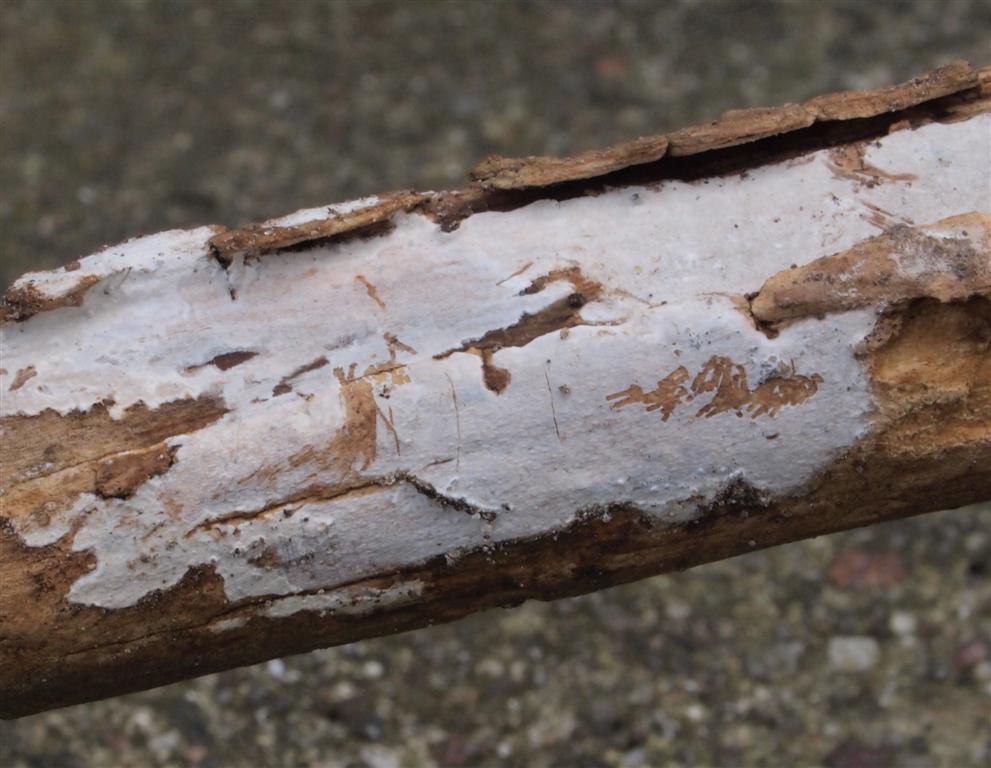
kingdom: Fungi
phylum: Basidiomycota
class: Agaricomycetes
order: Corticiales
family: Corticiaceae
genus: Lyomyces
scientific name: Lyomyces sambuci
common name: almindelig hyldehinde
